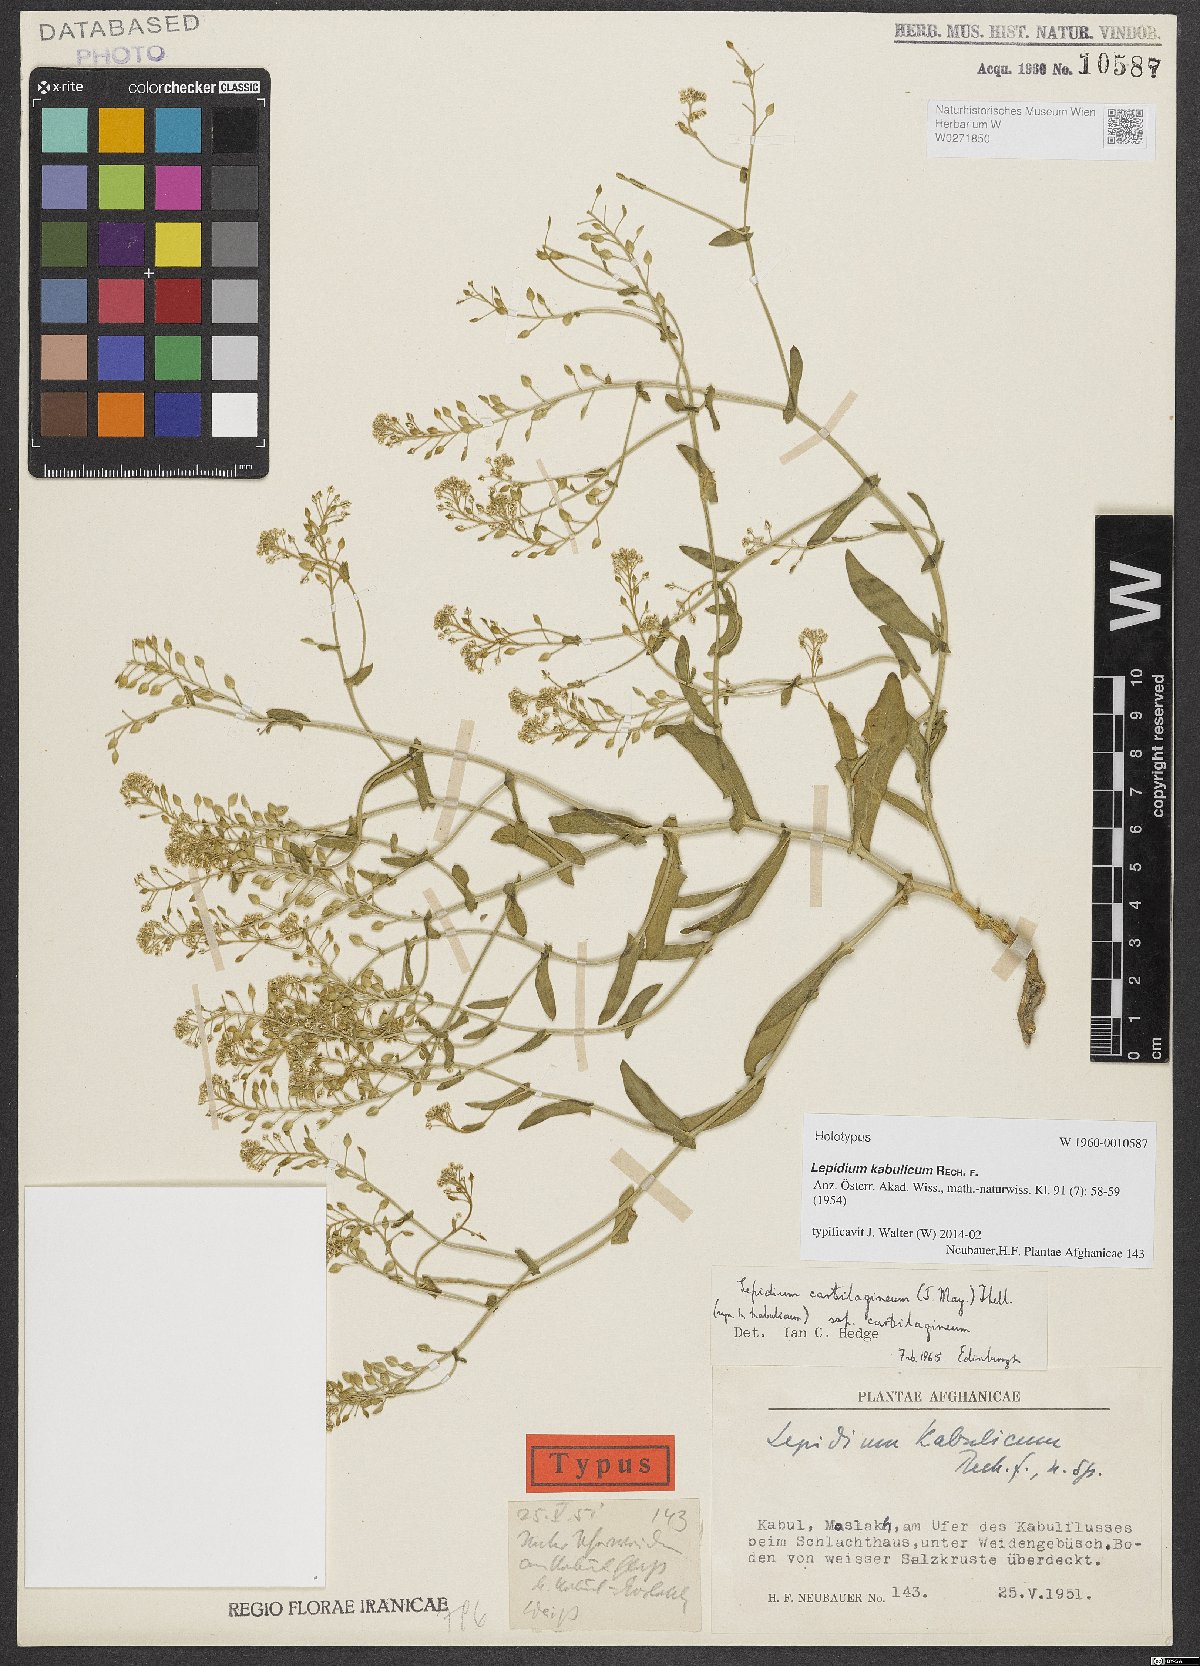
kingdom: Plantae
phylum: Tracheophyta
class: Magnoliopsida
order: Brassicales
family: Brassicaceae
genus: Lepidium
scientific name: Lepidium cartilagineum
